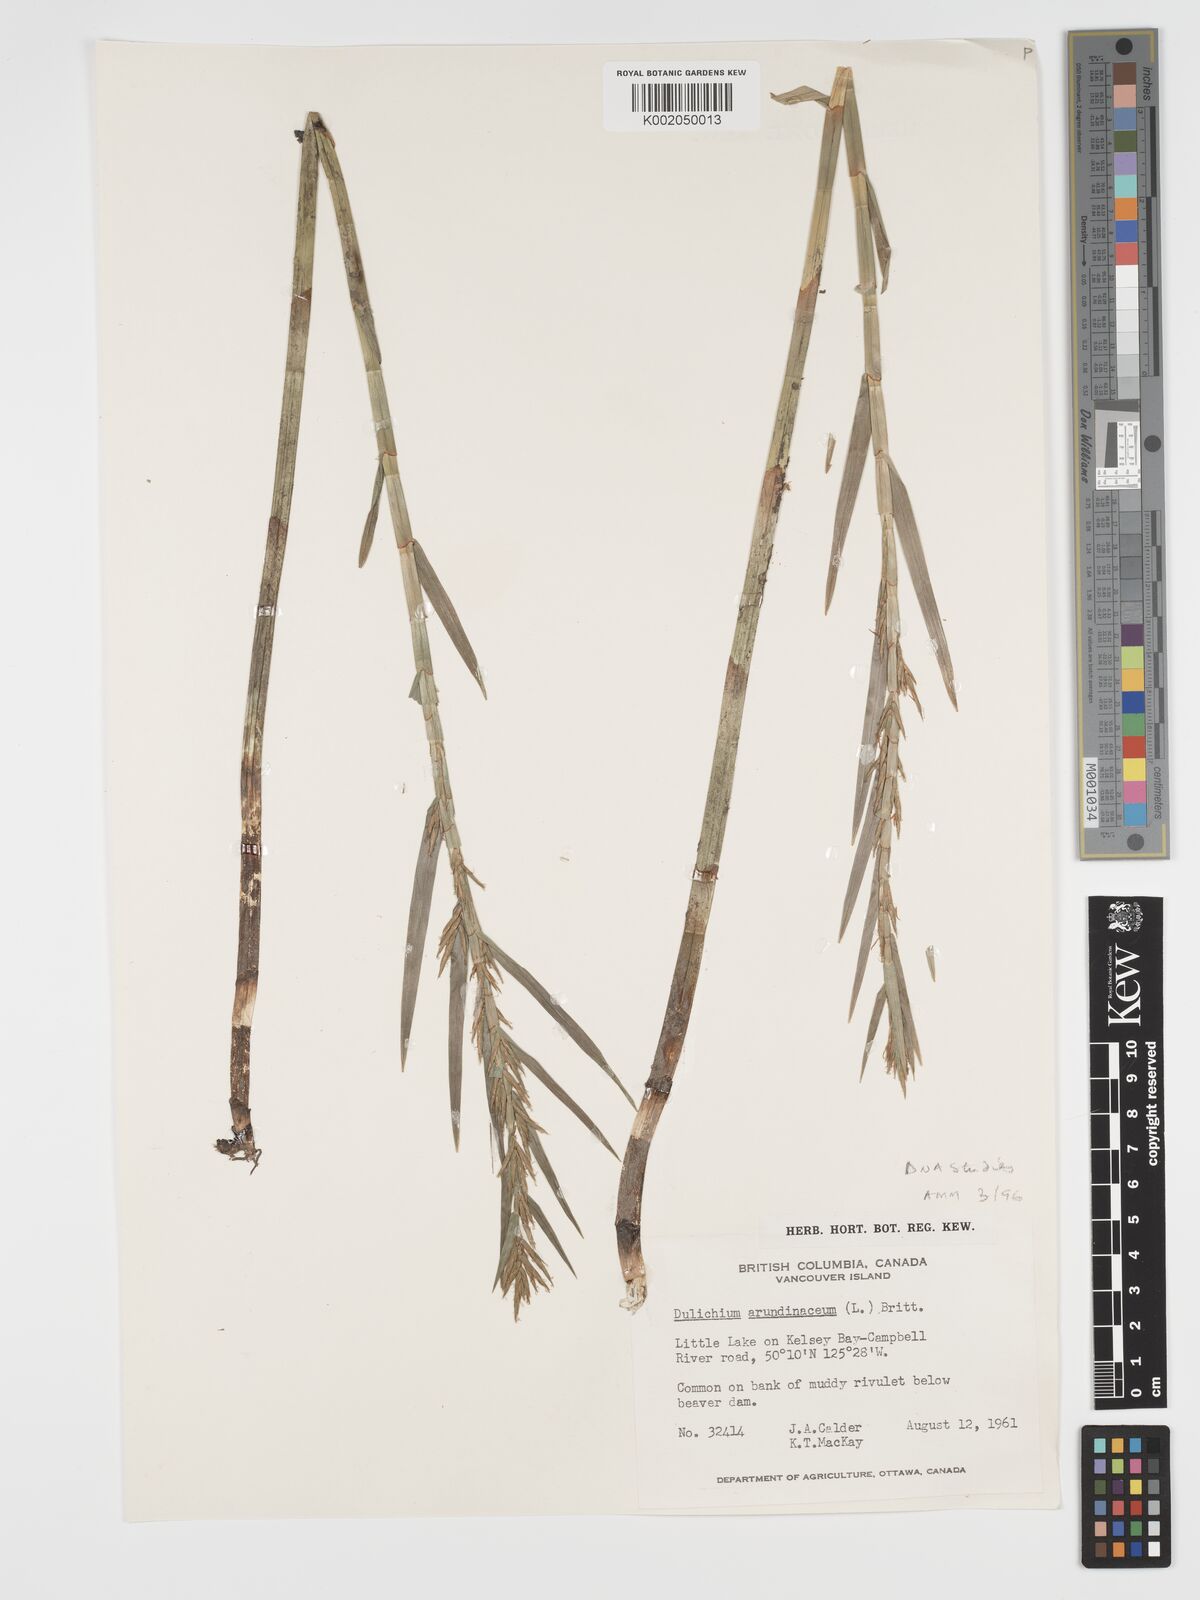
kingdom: Plantae
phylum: Tracheophyta
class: Liliopsida
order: Poales
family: Cyperaceae
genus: Dulichium
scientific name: Dulichium arundinaceum
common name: Three-way sedge
